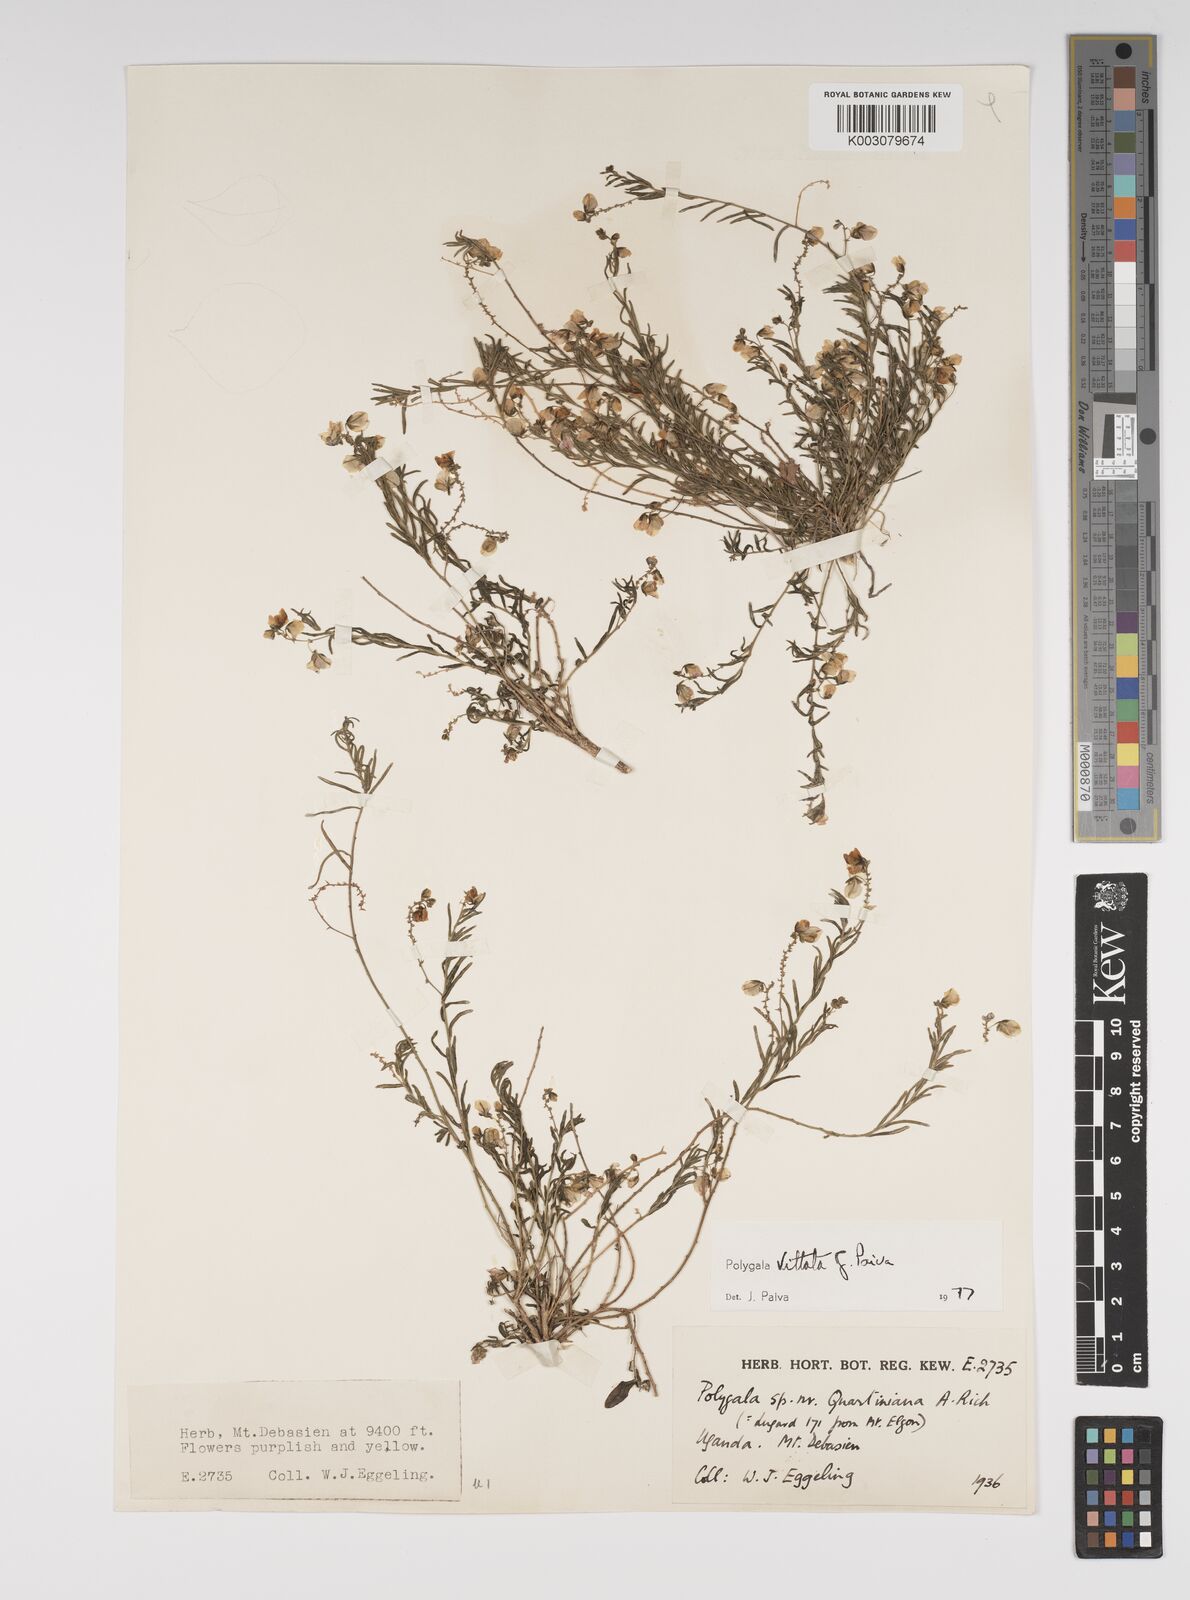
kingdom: Plantae
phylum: Tracheophyta
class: Magnoliopsida
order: Fabales
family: Polygalaceae
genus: Polygala
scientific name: Polygala vittata
